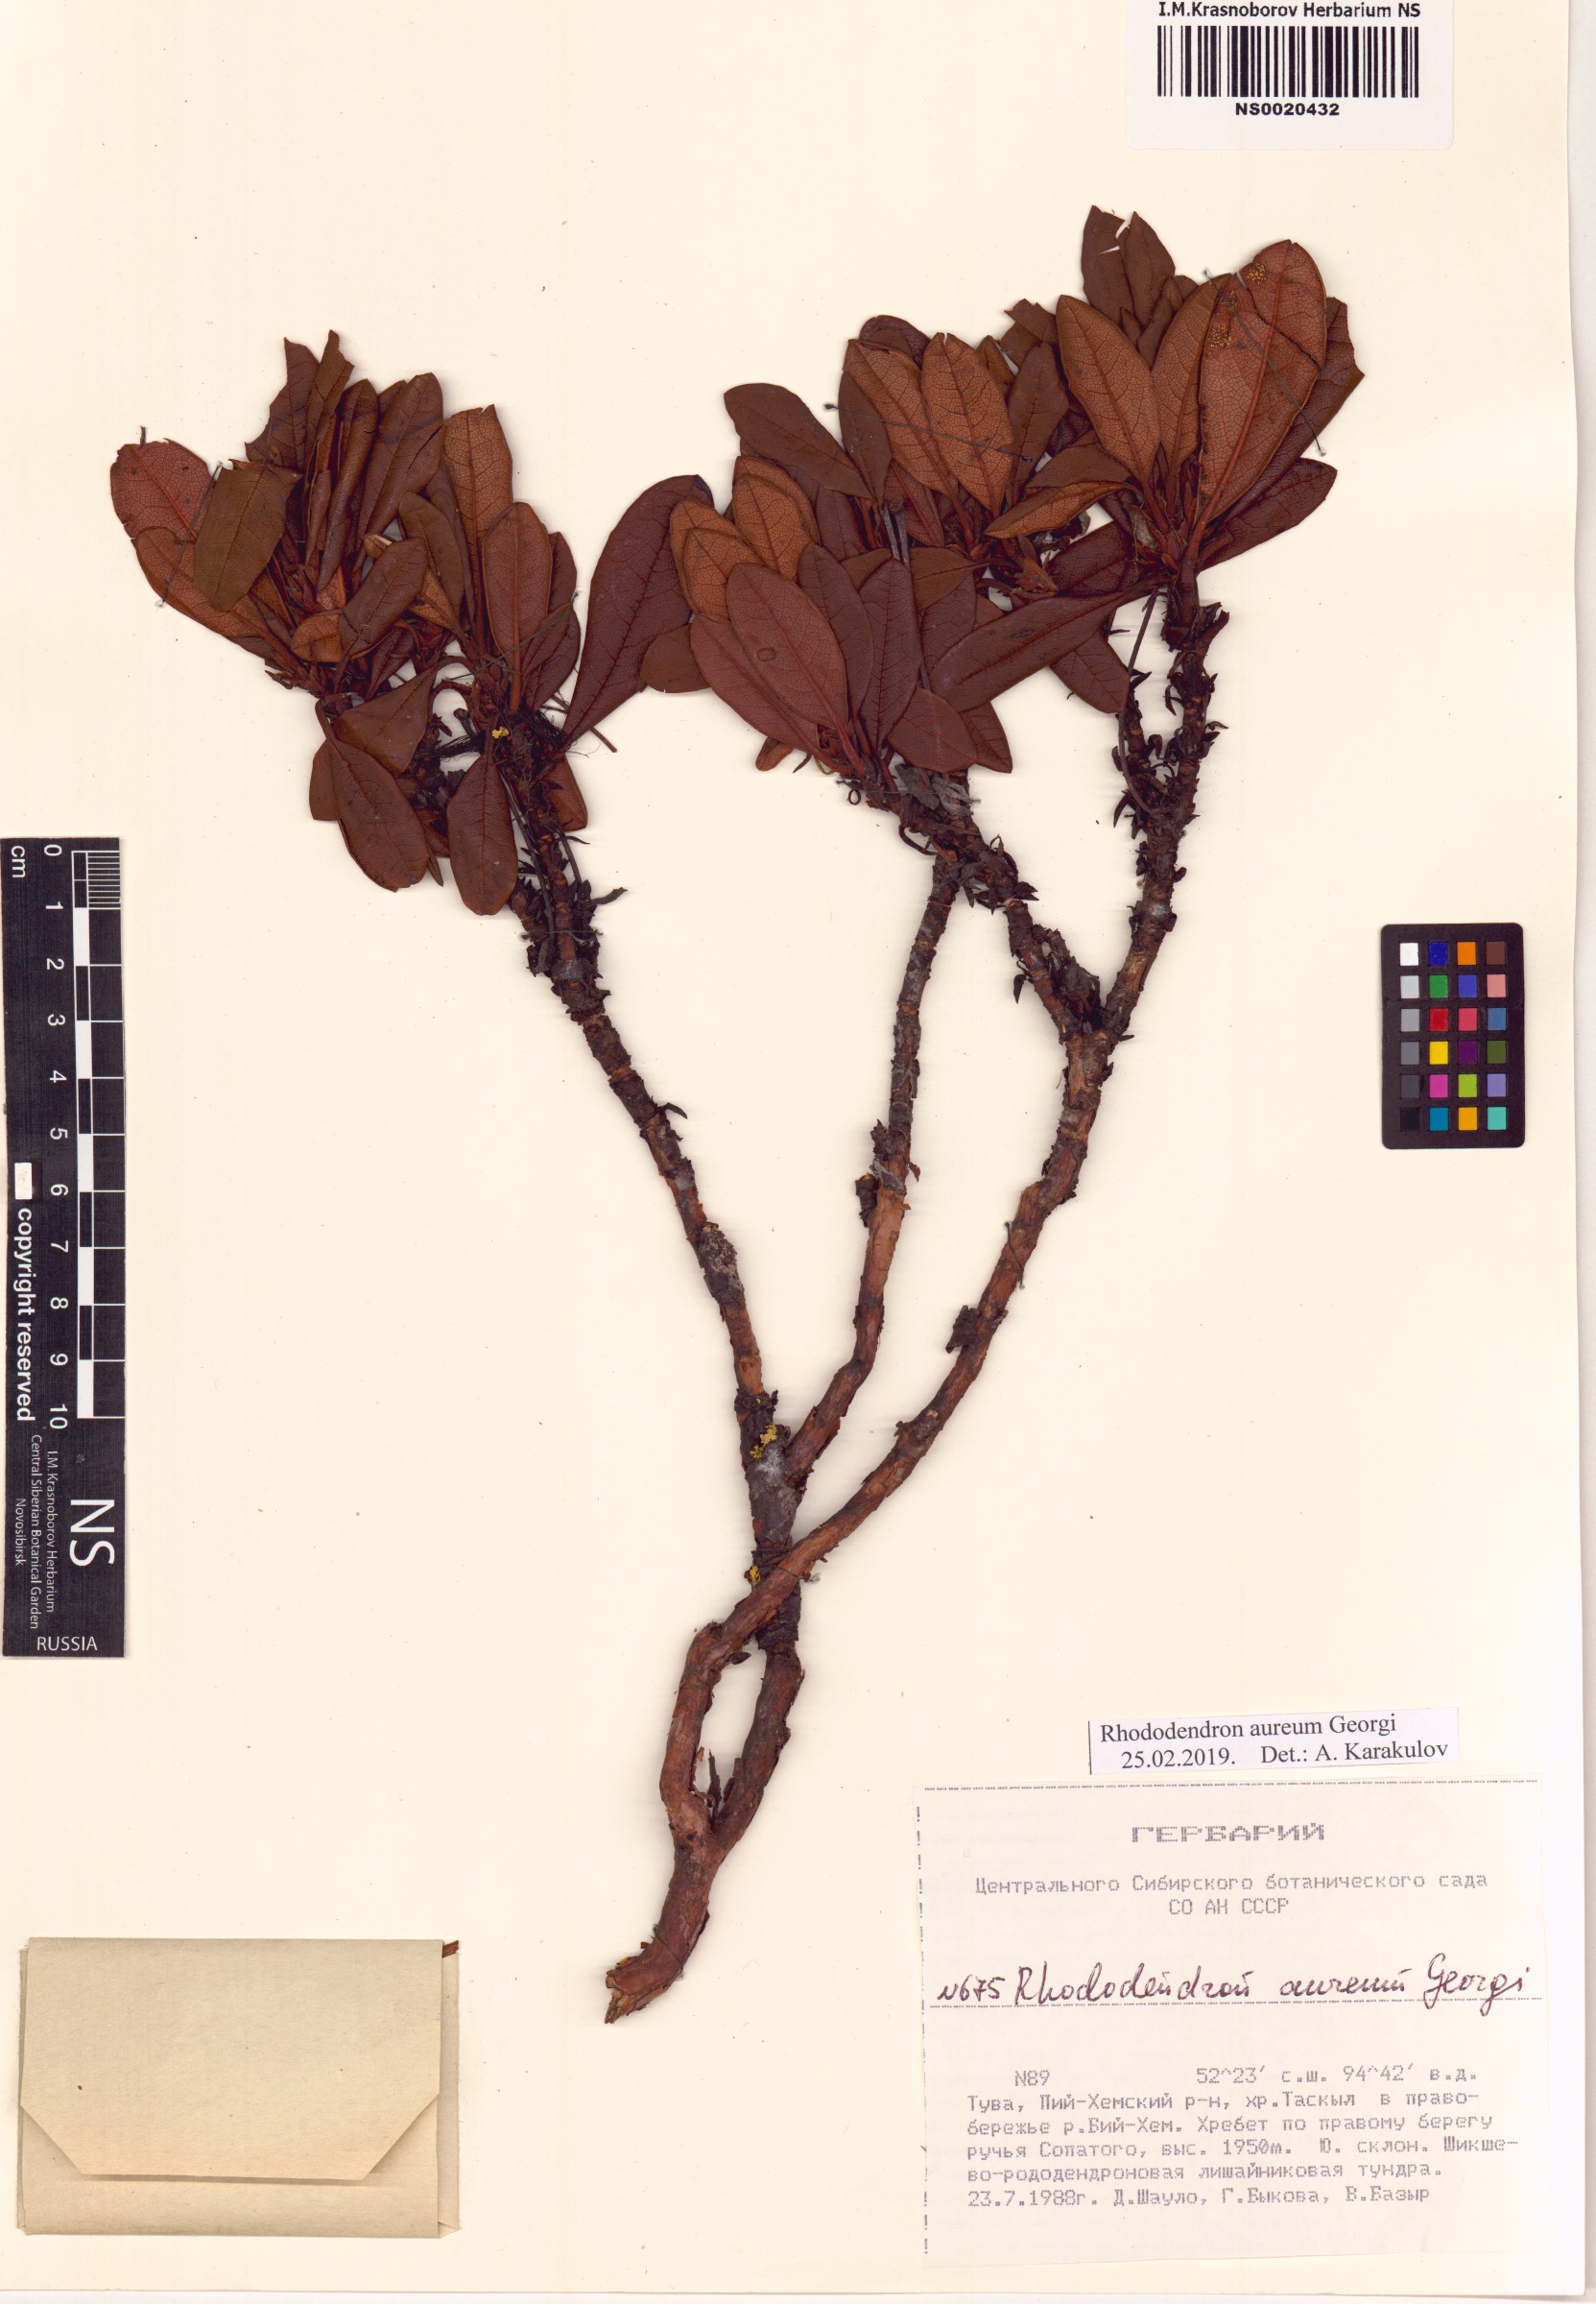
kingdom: Plantae
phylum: Tracheophyta
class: Magnoliopsida
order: Ericales
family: Ericaceae
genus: Rhododendron
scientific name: Rhododendron aureum
